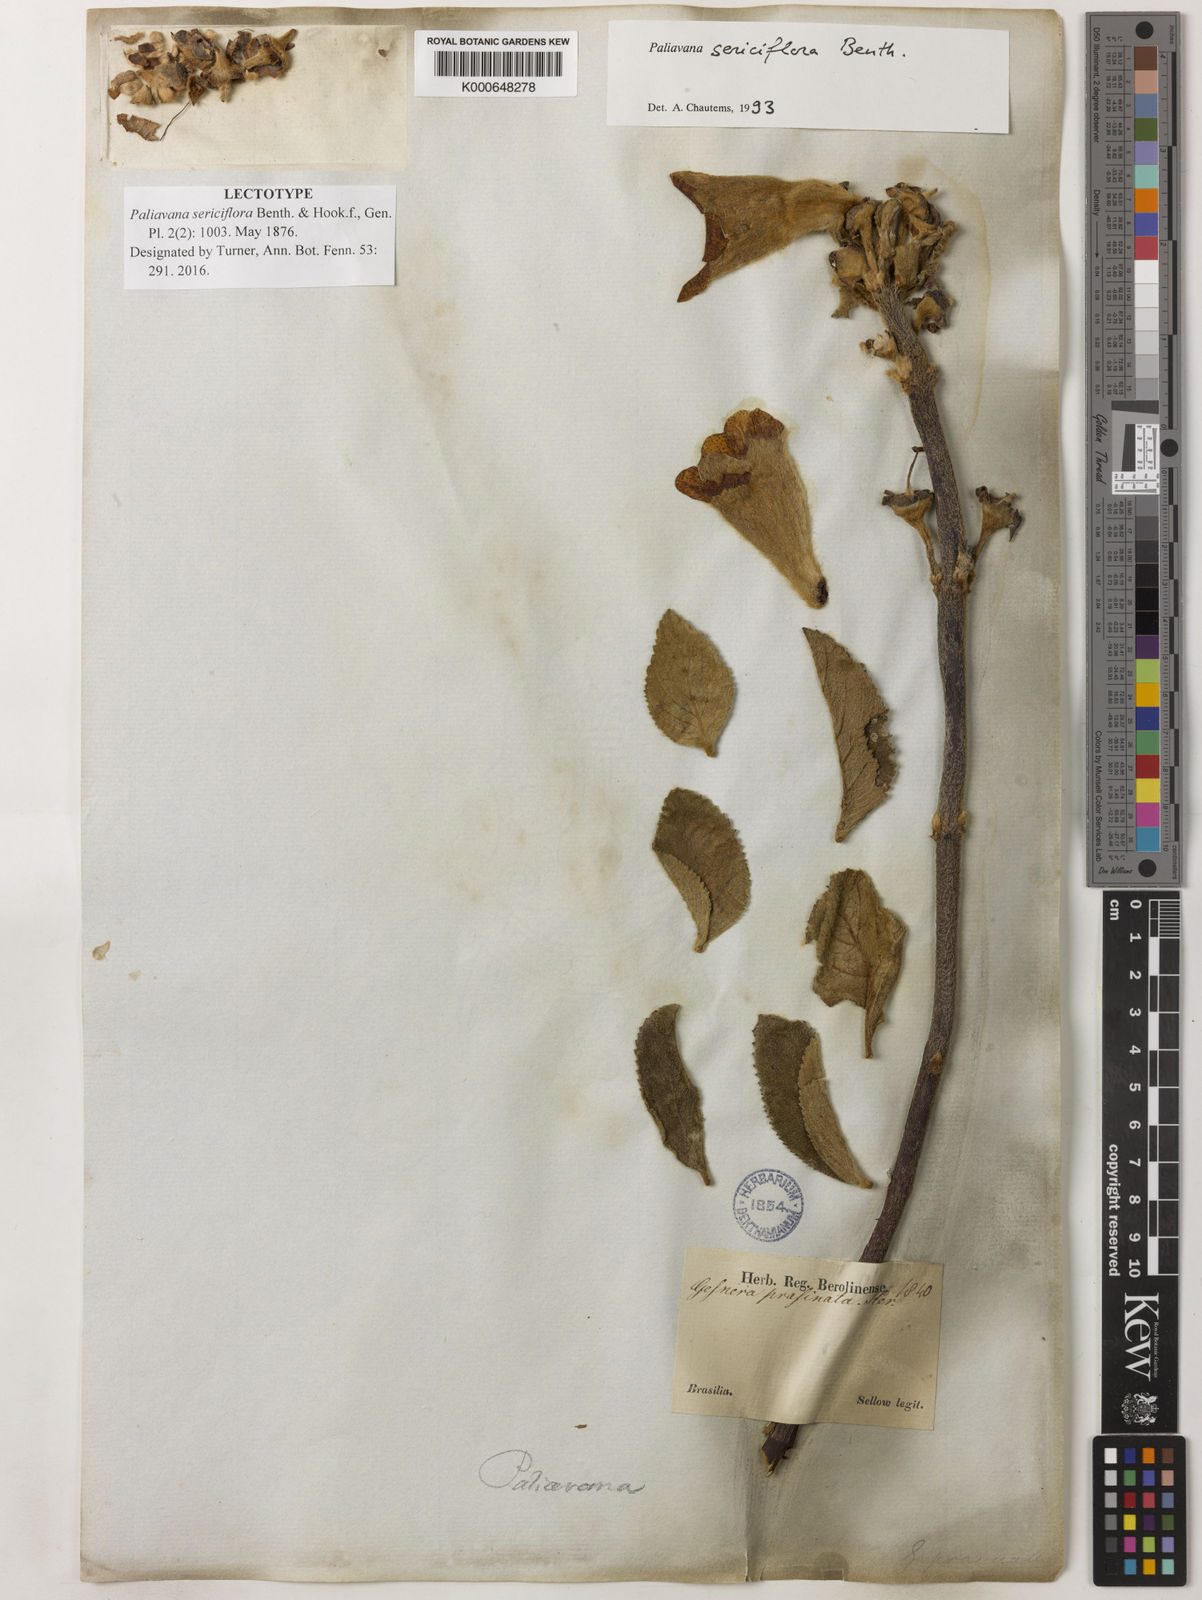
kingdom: Plantae
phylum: Tracheophyta
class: Magnoliopsida
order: Lamiales
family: Gesneriaceae
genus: Paliavana
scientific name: Paliavana
